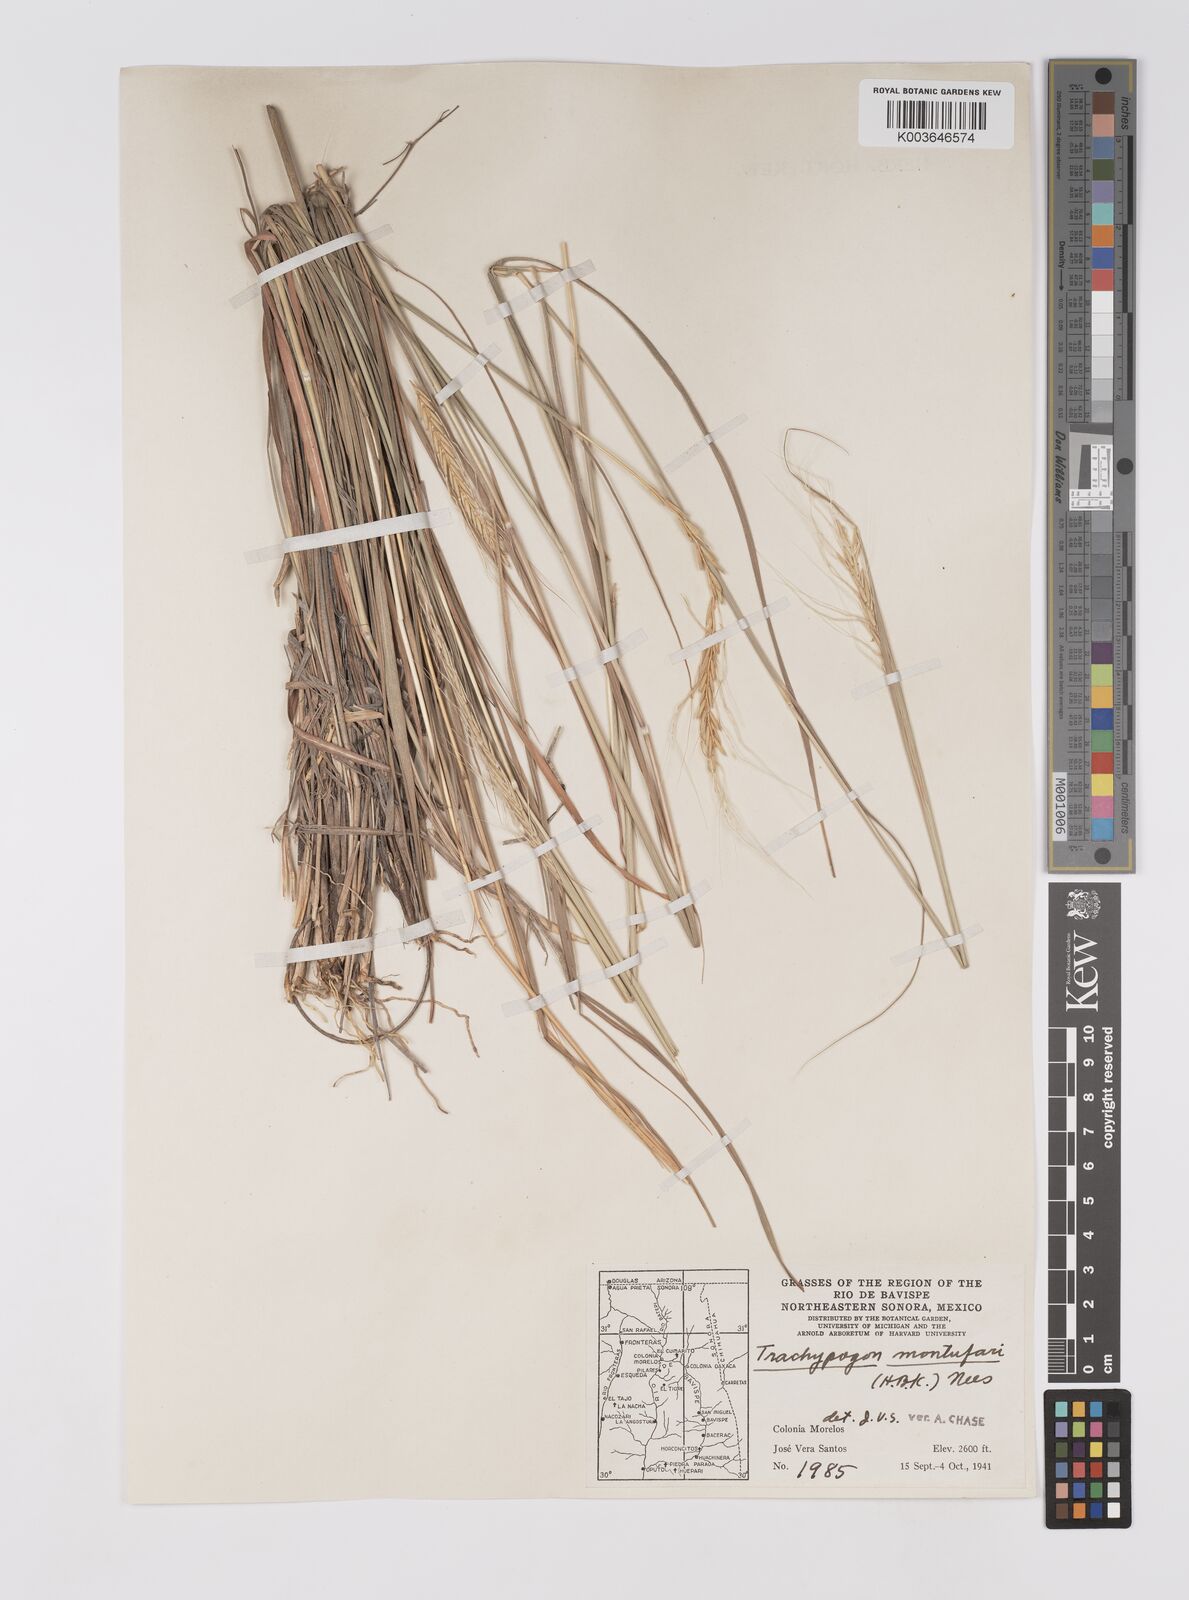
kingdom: Plantae
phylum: Tracheophyta
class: Liliopsida
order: Poales
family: Poaceae
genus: Trachypogon
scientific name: Trachypogon spicatus
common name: Crinkle-awn
